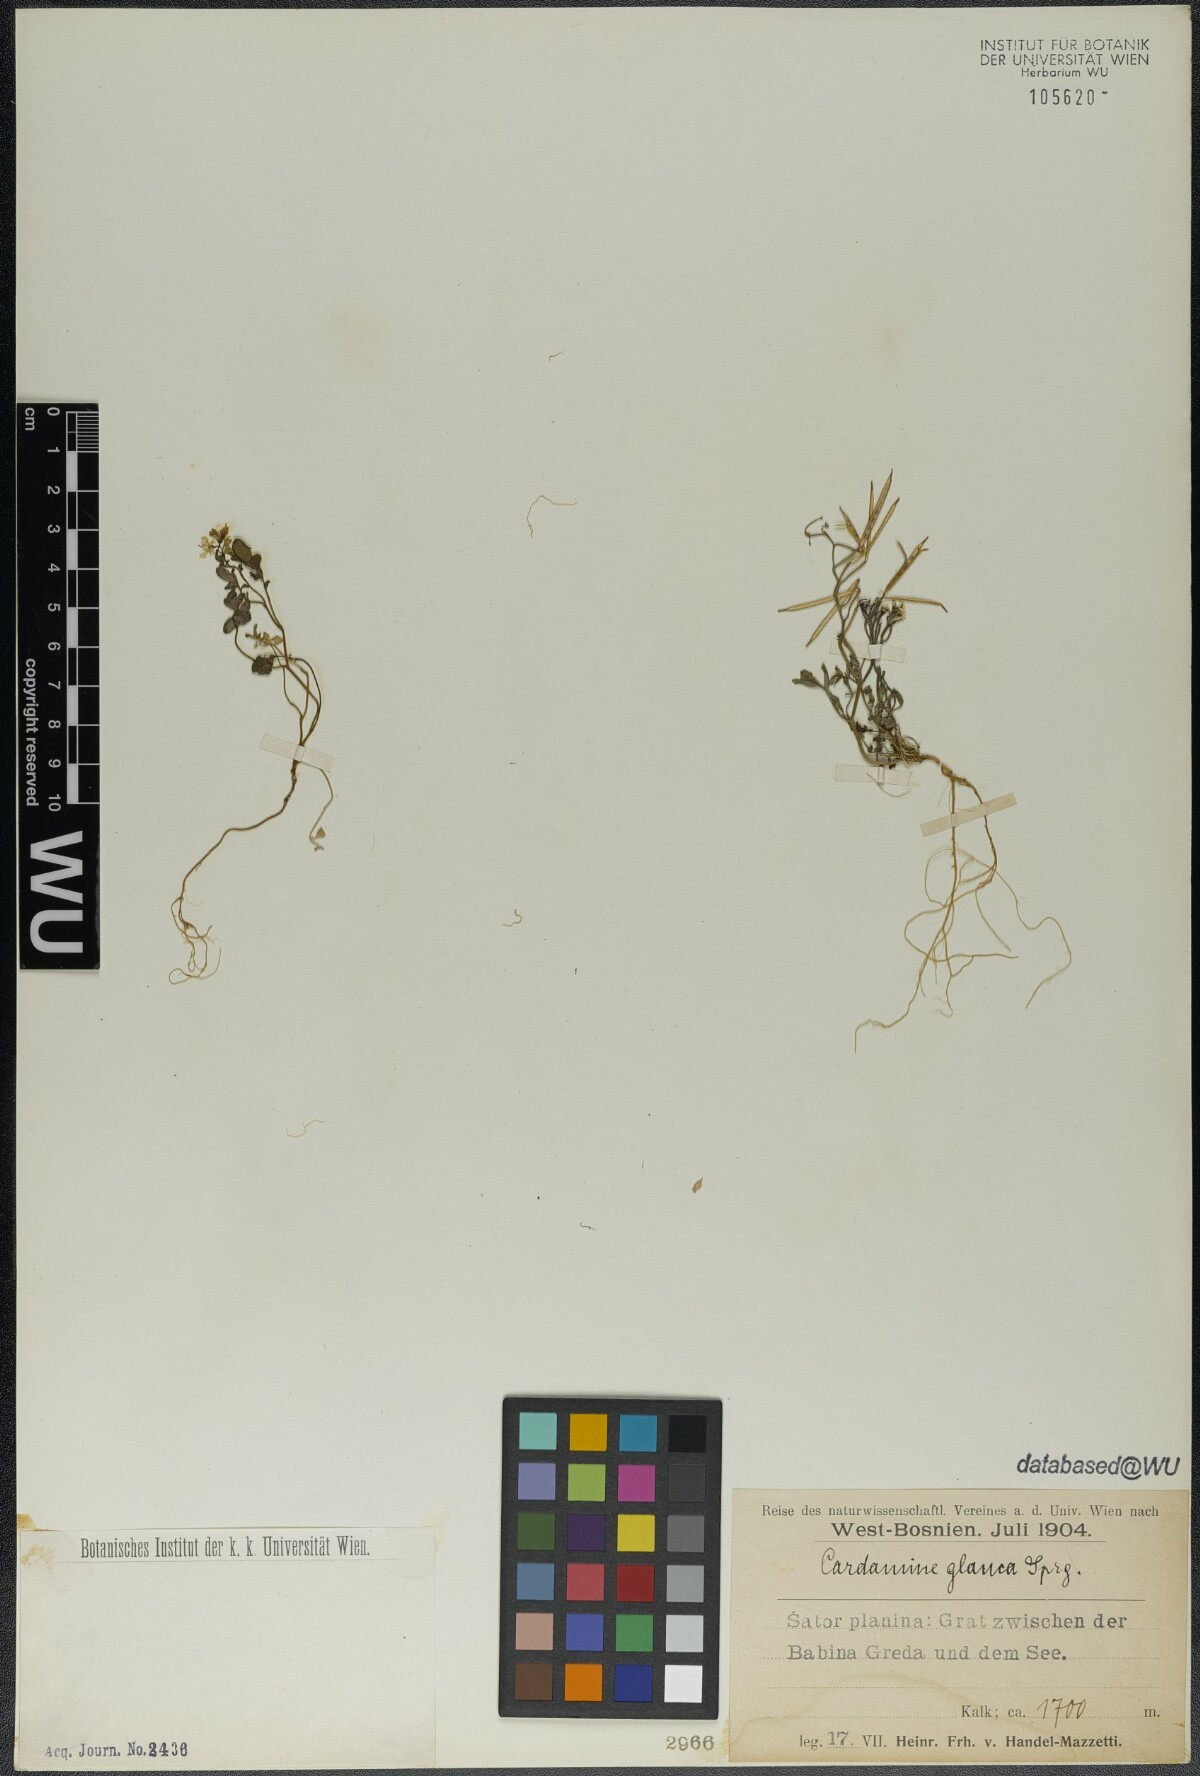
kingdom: Plantae
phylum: Tracheophyta
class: Magnoliopsida
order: Brassicales
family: Brassicaceae
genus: Cardamine
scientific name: Cardamine glauca
